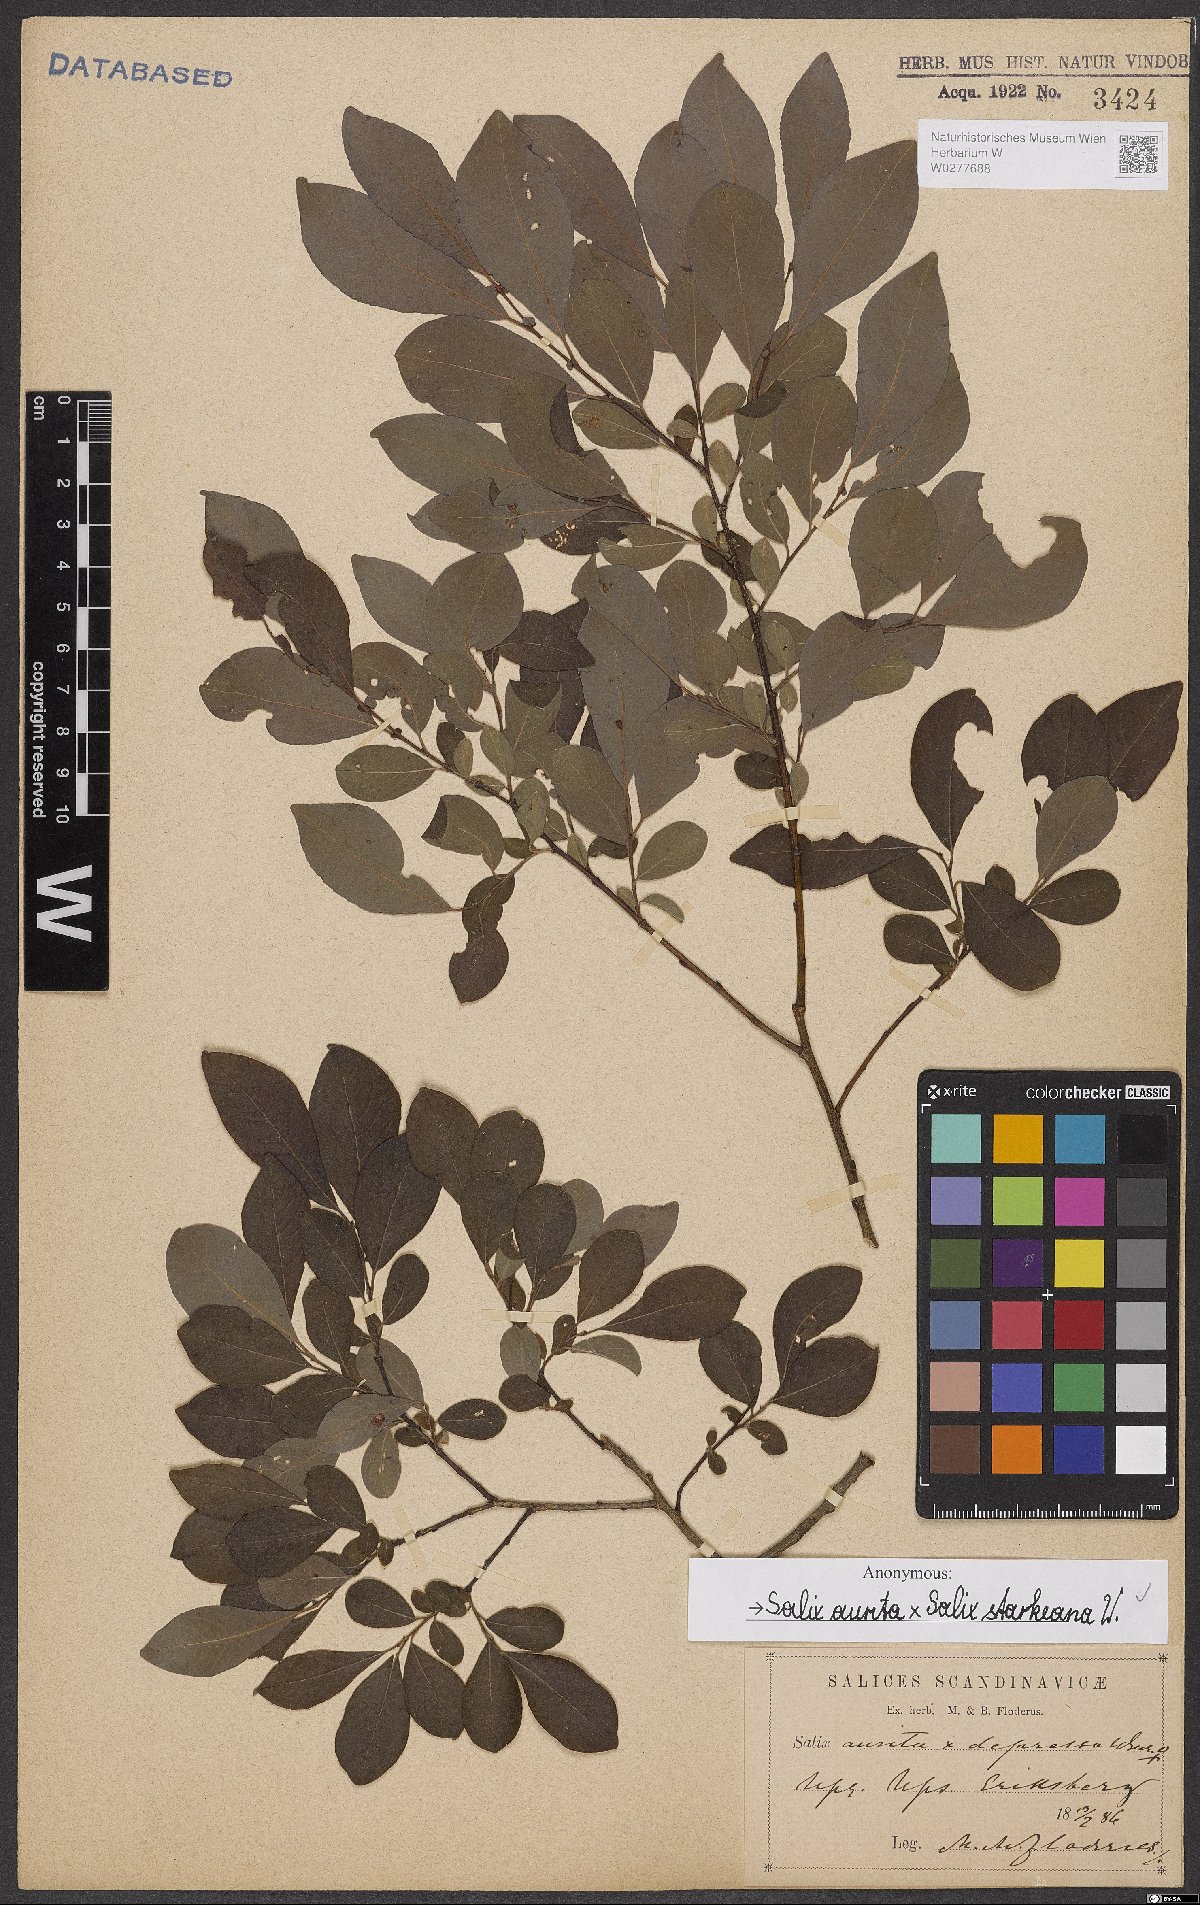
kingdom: Plantae
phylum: Tracheophyta
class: Magnoliopsida
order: Malpighiales
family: Salicaceae
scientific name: Salicaceae
